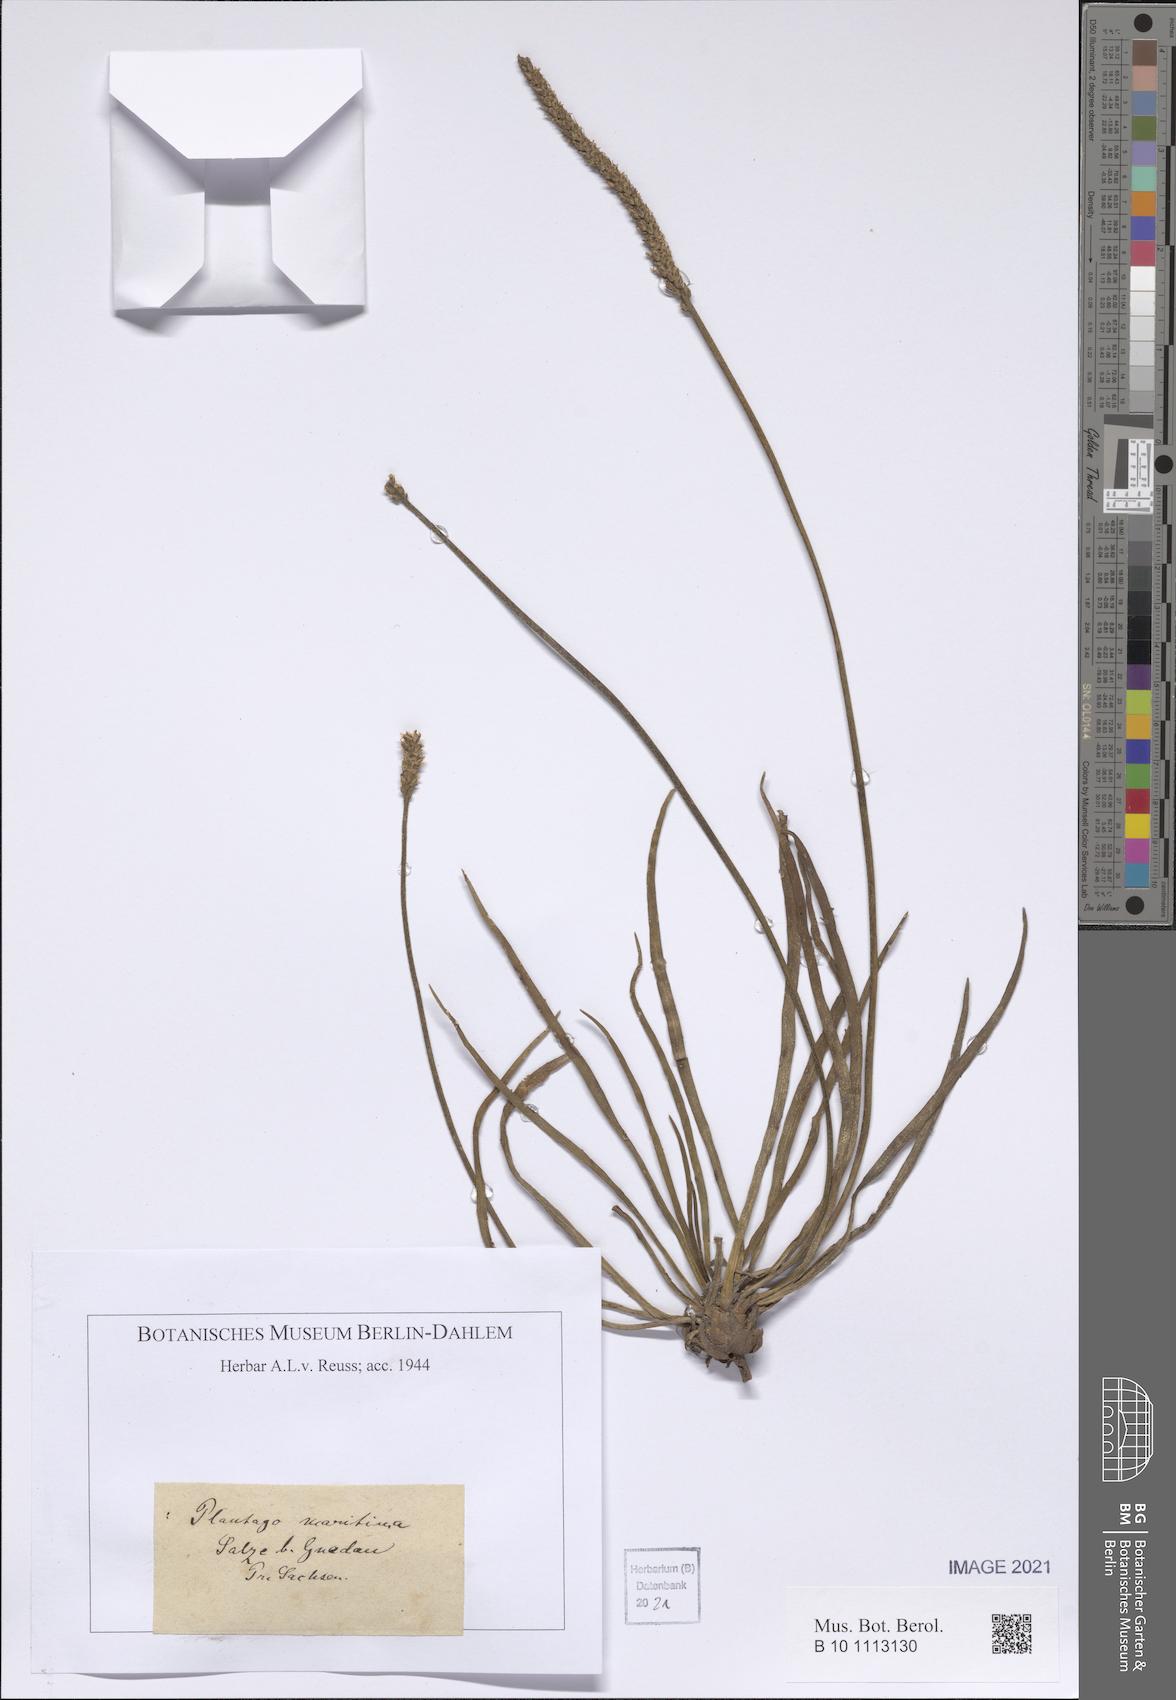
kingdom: Plantae
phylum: Tracheophyta
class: Magnoliopsida
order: Lamiales
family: Plantaginaceae
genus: Plantago
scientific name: Plantago maritima
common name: Sea plantain
